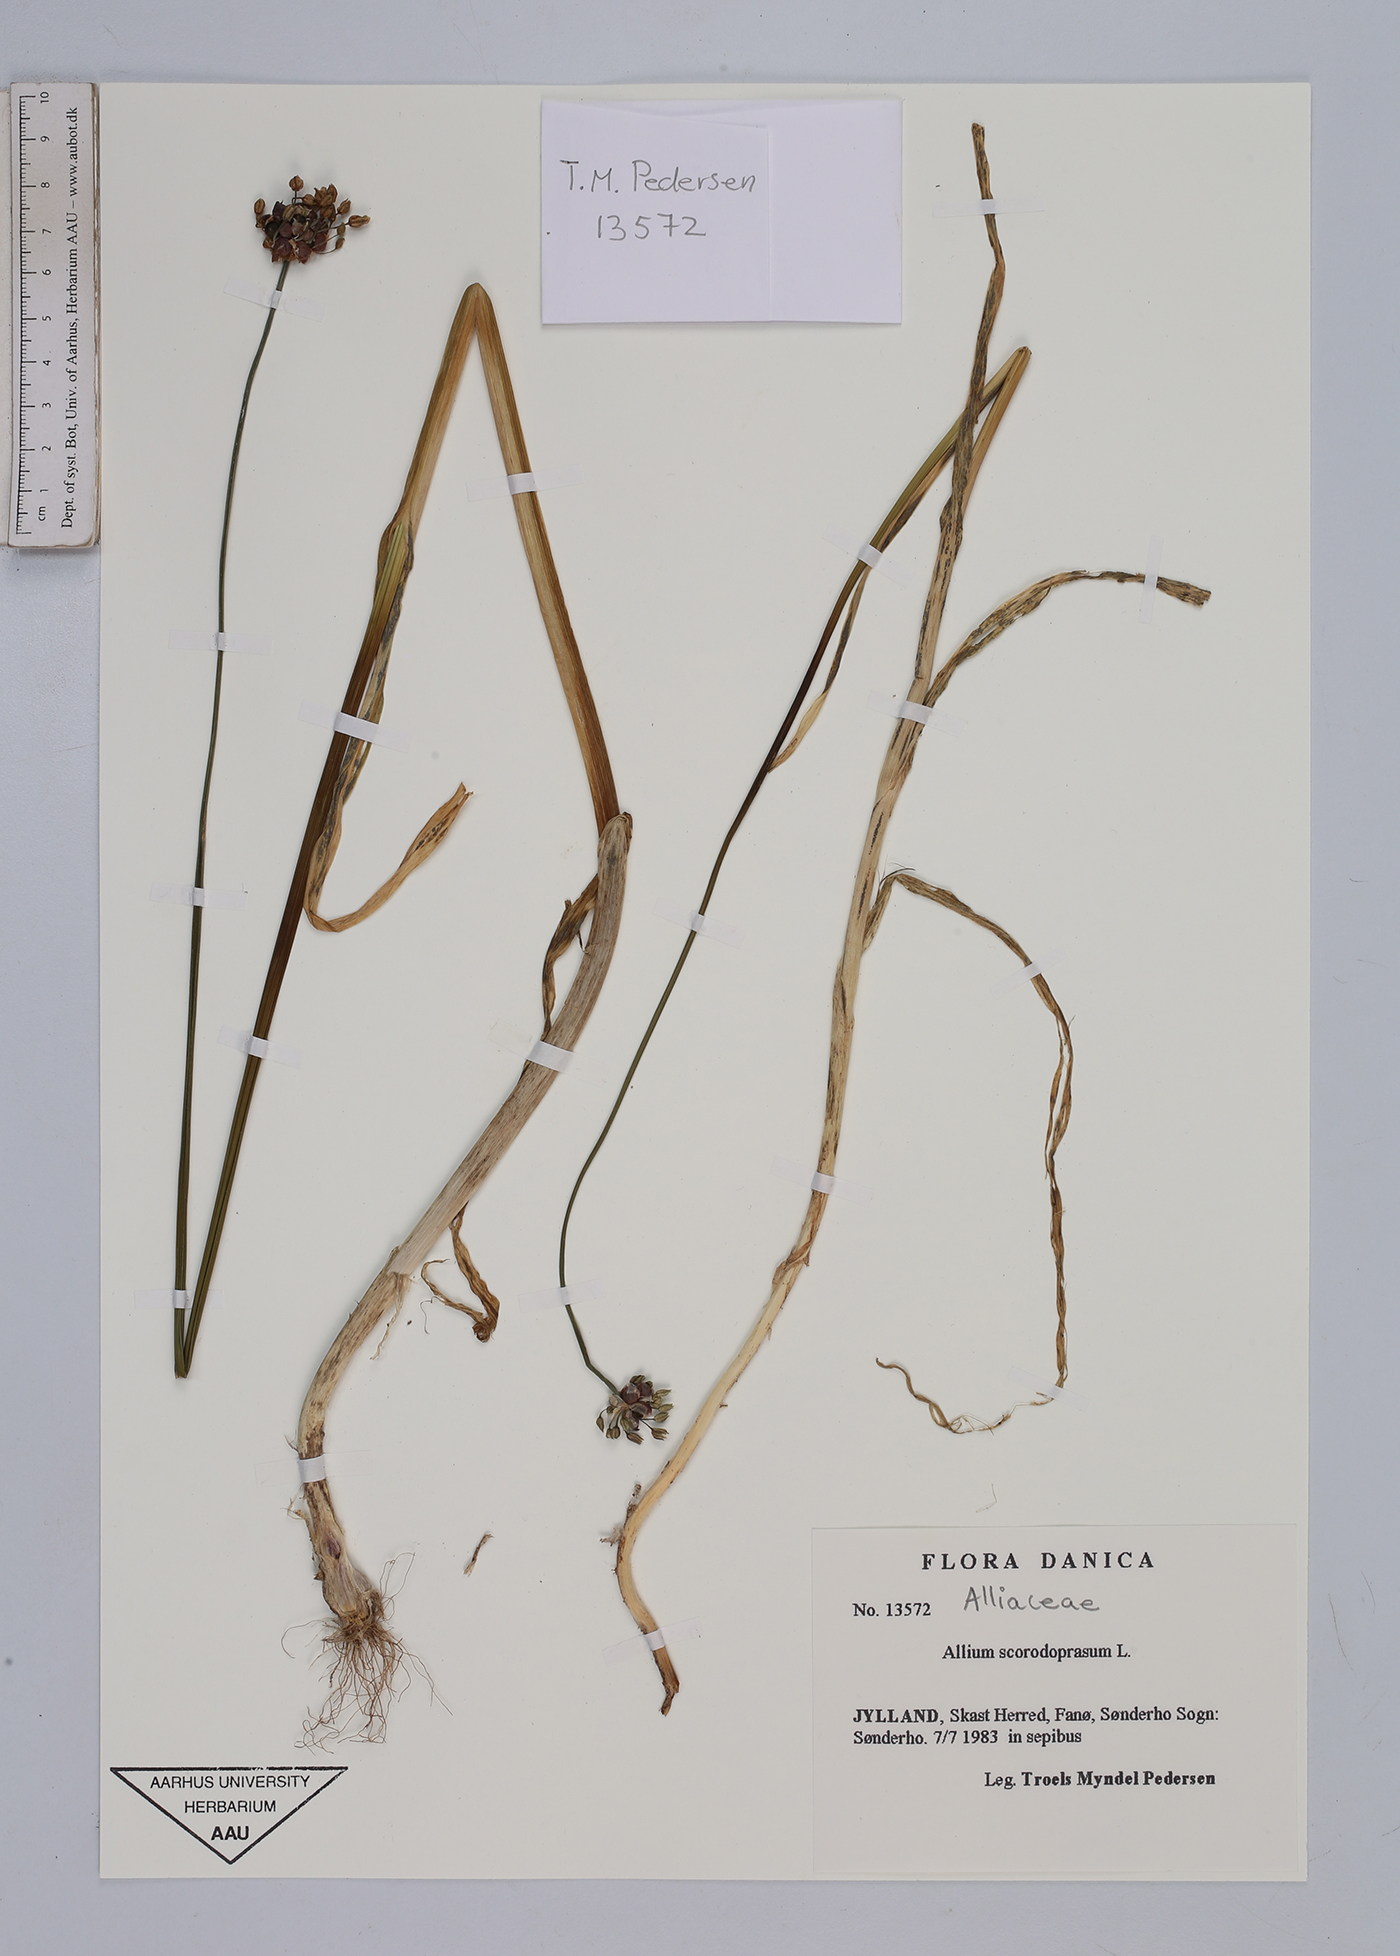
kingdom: Plantae
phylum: Tracheophyta
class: Liliopsida
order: Asparagales
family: Amaryllidaceae
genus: Allium
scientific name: Allium scorodoprasum
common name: Sand leek
